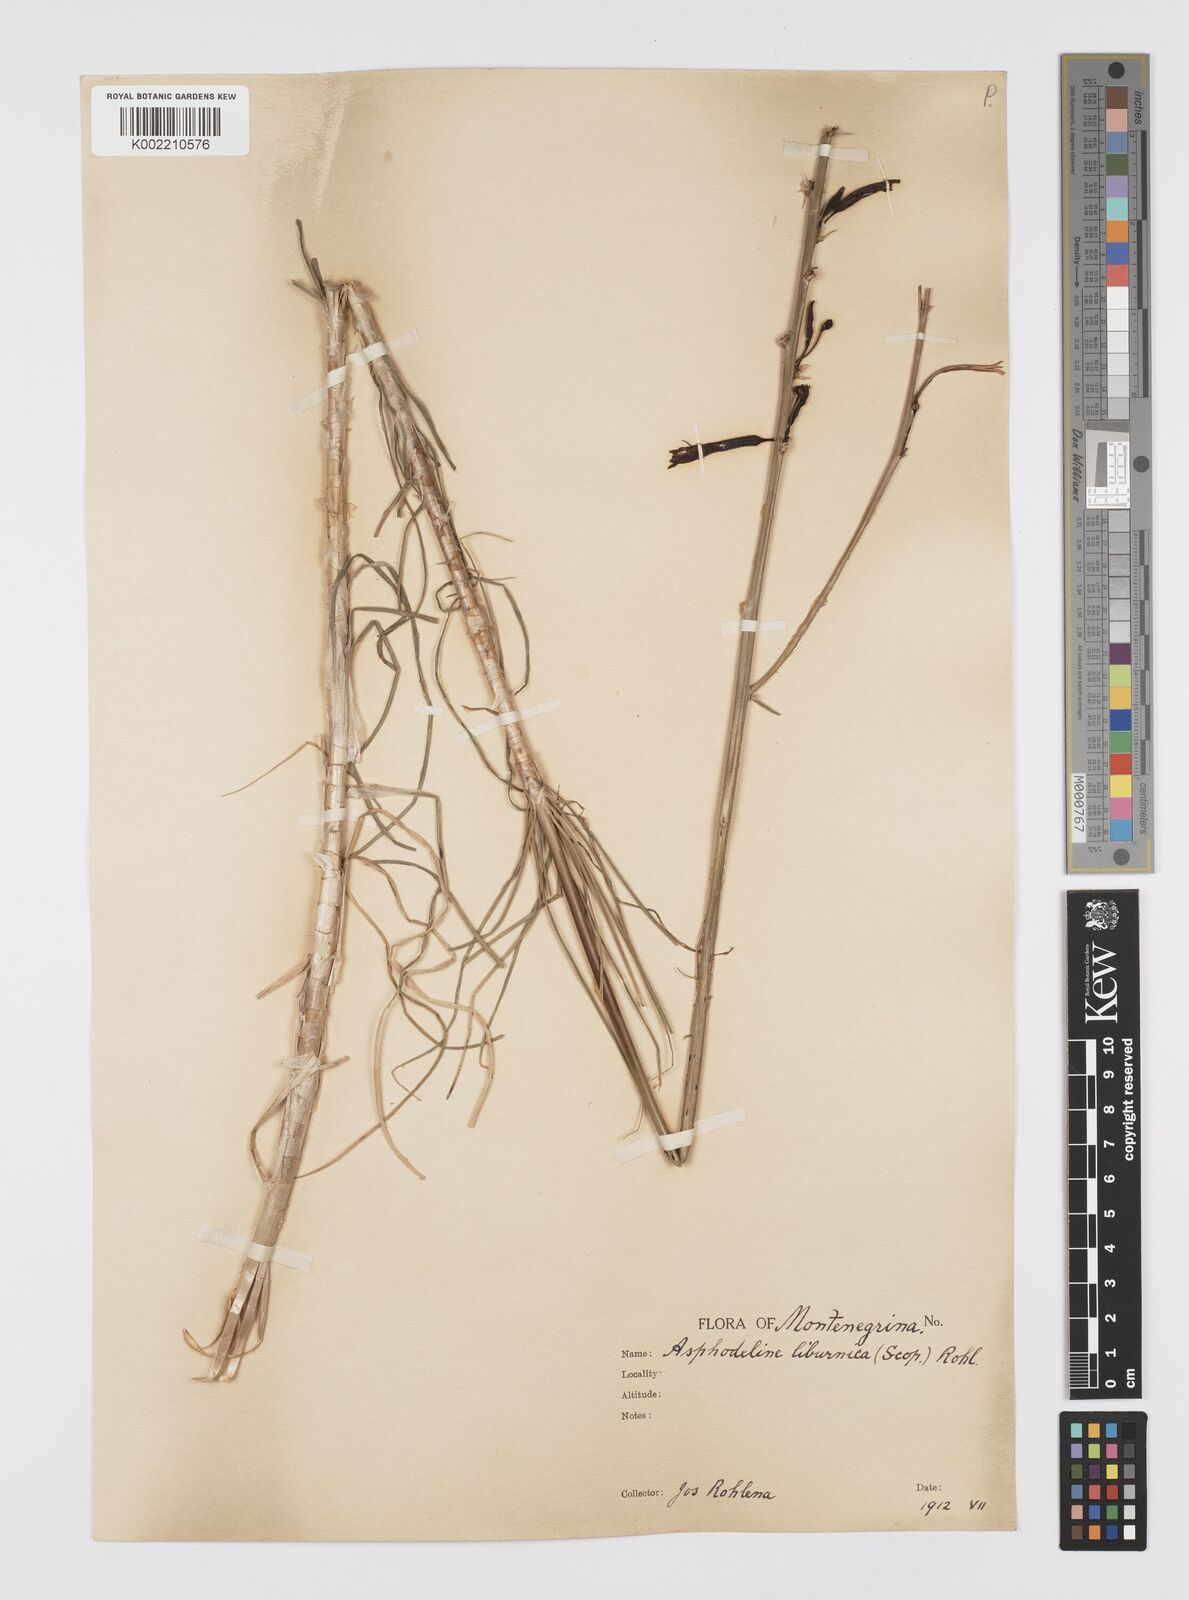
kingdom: Plantae
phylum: Tracheophyta
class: Liliopsida
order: Asparagales
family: Asphodelaceae
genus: Asphodeline
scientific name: Asphodeline liburnica
